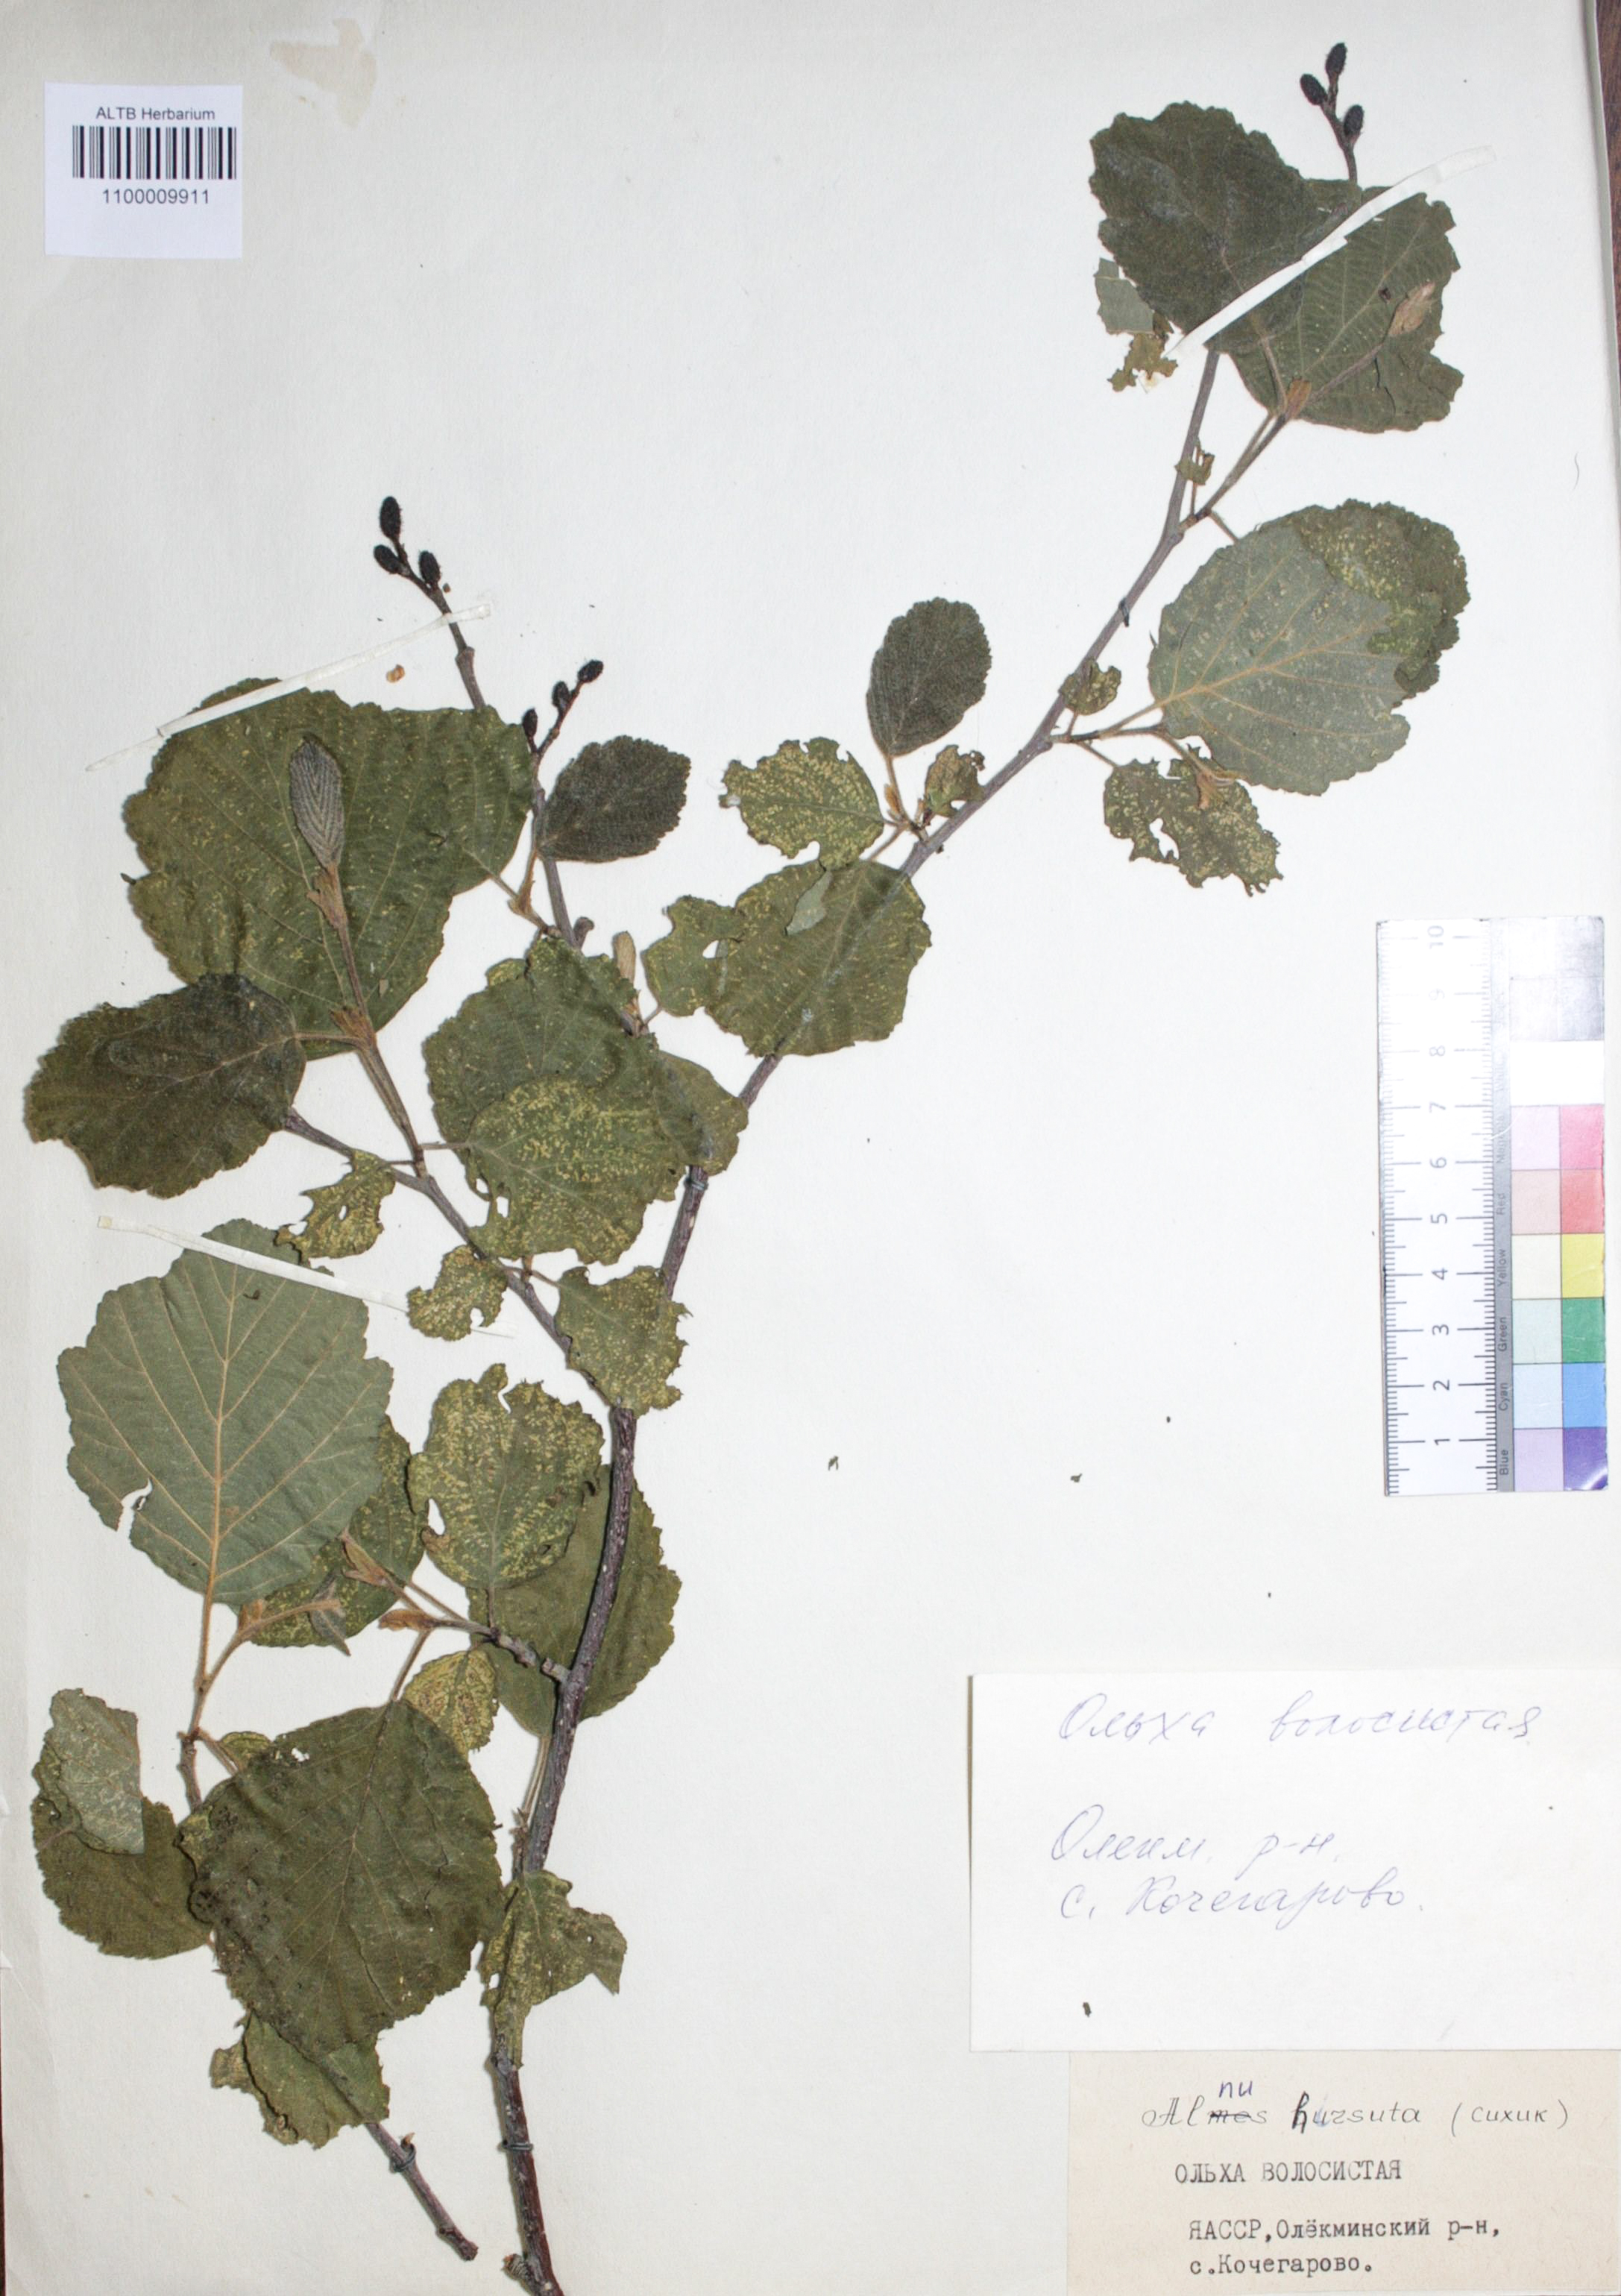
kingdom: Plantae
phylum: Tracheophyta
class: Magnoliopsida
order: Fagales
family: Betulaceae
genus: Alnus
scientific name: Alnus hirsuta
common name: Manchurian alder
